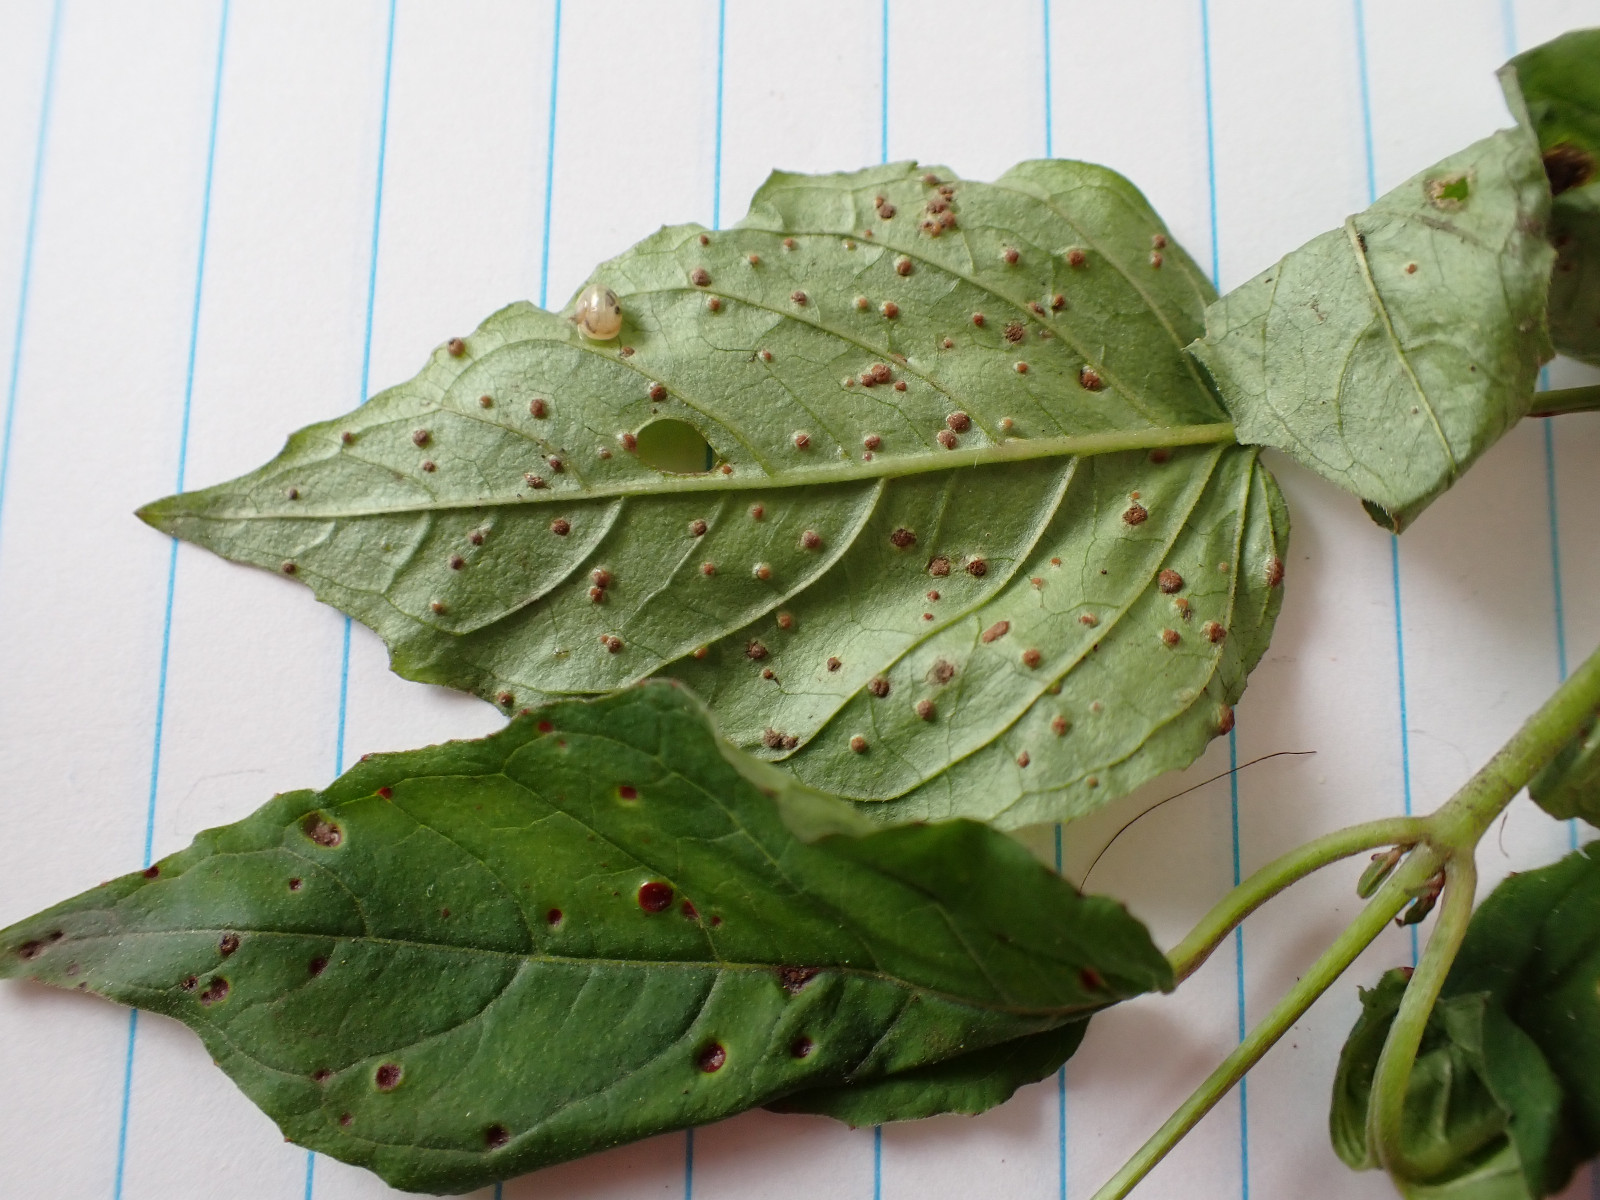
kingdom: Fungi
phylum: Basidiomycota
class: Pucciniomycetes
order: Pucciniales
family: Pucciniaceae
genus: Puccinia
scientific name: Puccinia circaeae
